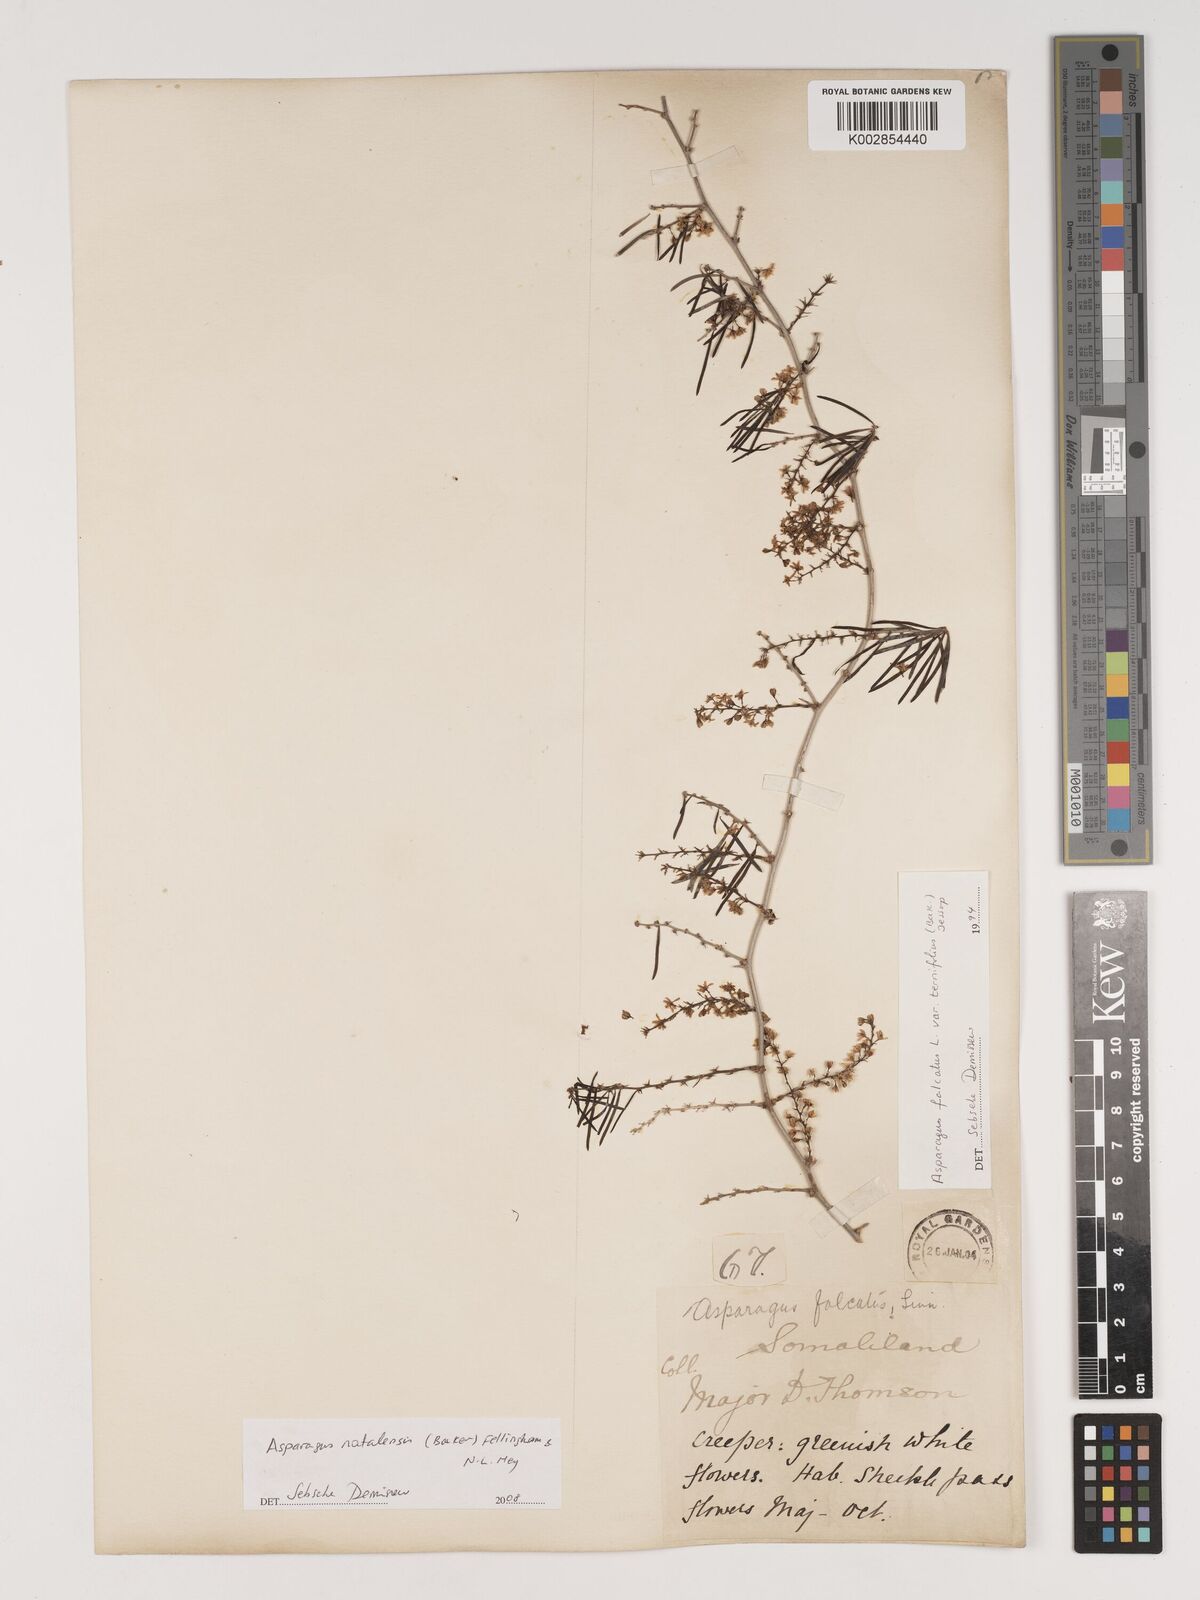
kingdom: Plantae
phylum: Tracheophyta
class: Liliopsida
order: Asparagales
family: Asparagaceae
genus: Asparagus
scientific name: Asparagus natalensis
